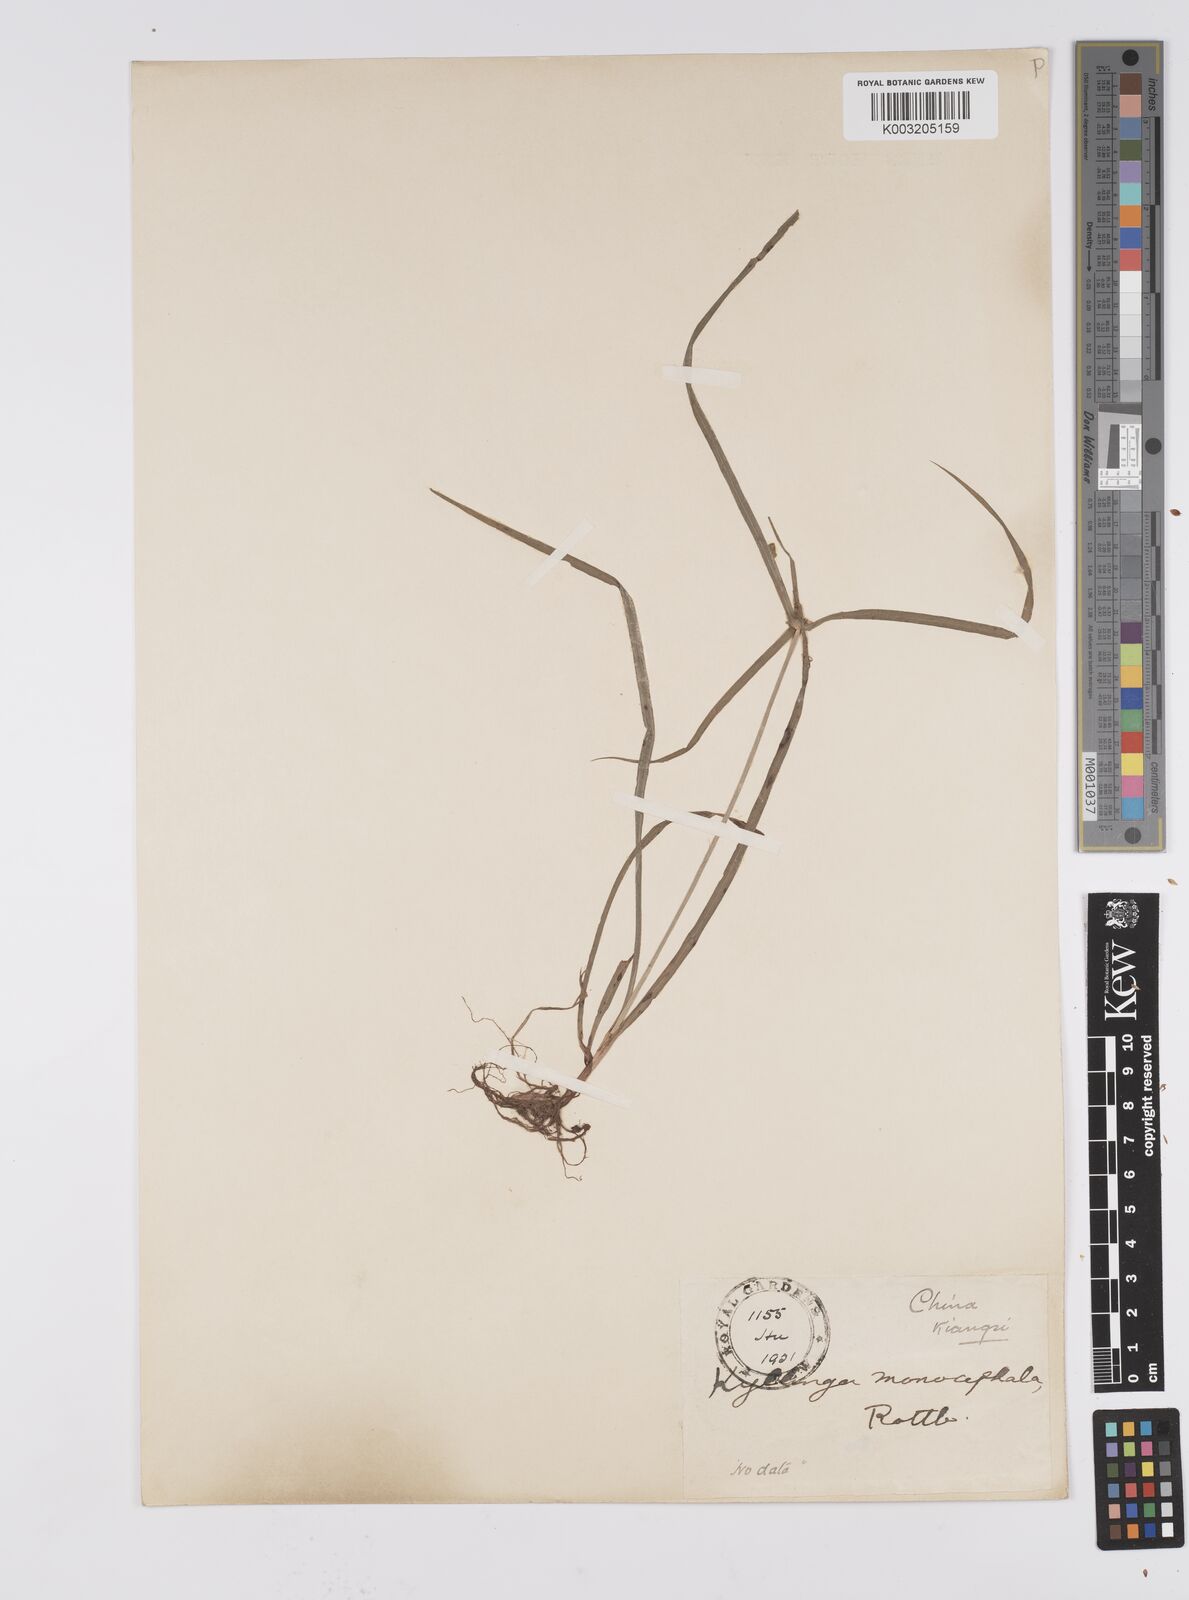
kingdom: Plantae
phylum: Tracheophyta
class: Liliopsida
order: Poales
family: Cyperaceae
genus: Cyperus
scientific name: Cyperus nemoralis
